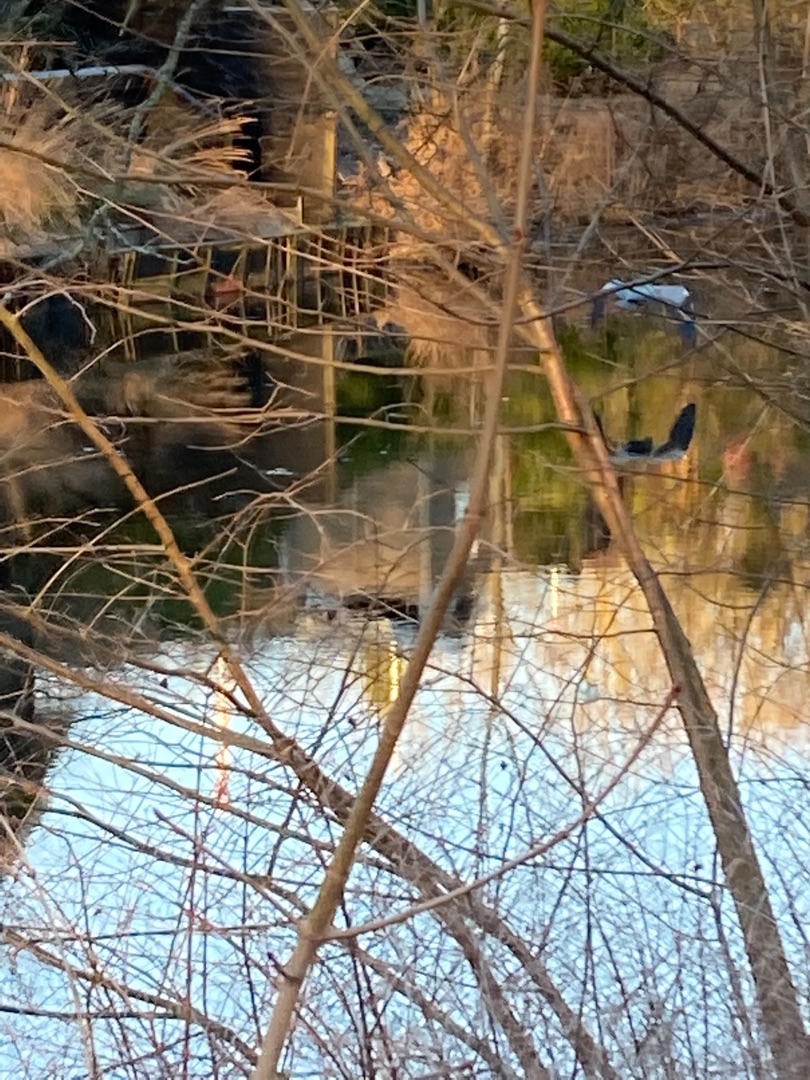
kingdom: Animalia
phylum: Chordata
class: Aves
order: Pelecaniformes
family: Ardeidae
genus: Ardea
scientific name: Ardea cinerea
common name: Fiskehejre
